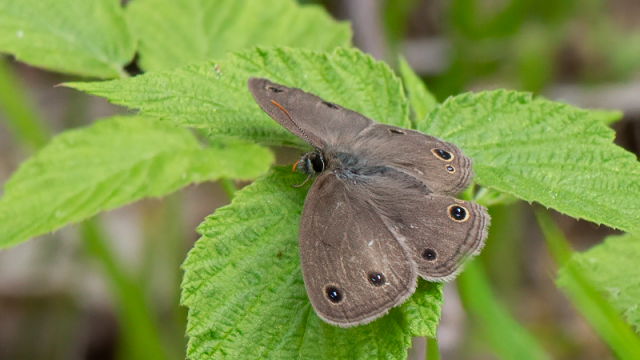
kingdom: Animalia
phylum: Arthropoda
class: Insecta
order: Lepidoptera
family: Nymphalidae
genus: Euptychia
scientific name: Euptychia cymela
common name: Little Wood Satyr
